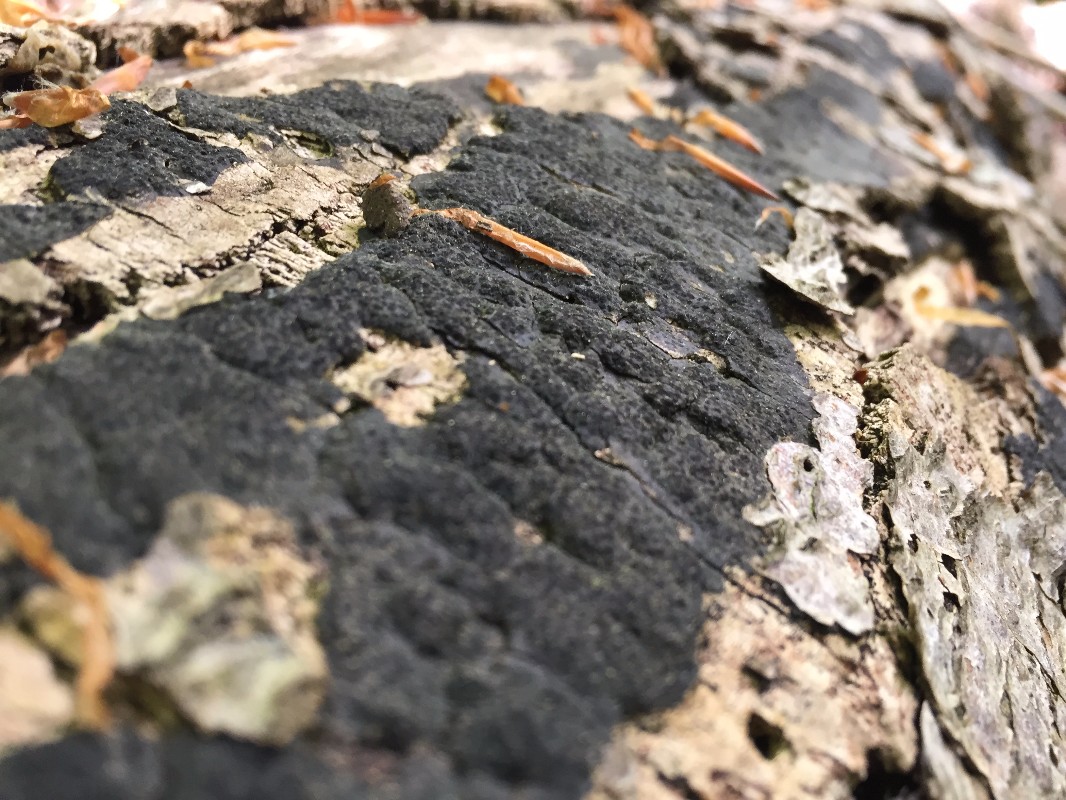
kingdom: Fungi
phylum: Ascomycota
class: Sordariomycetes
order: Xylariales
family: Diatrypaceae
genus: Eutypa
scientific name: Eutypa spinosa
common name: grov kulskorpe
